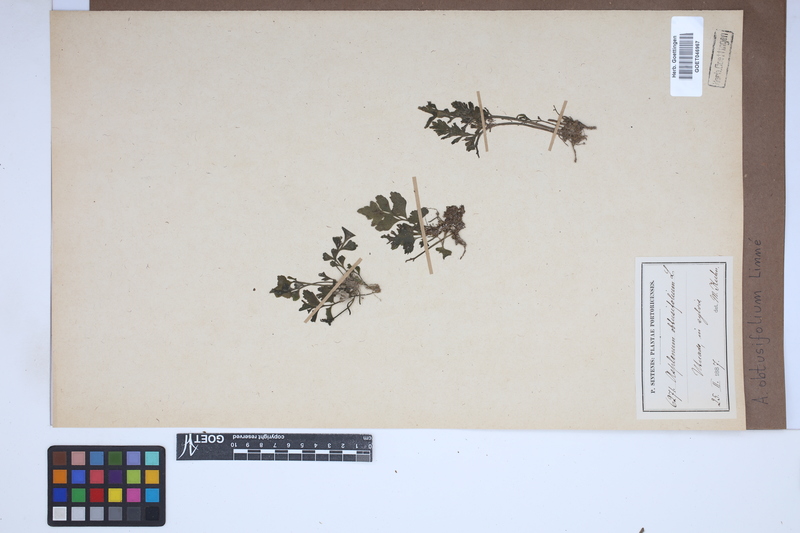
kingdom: Plantae
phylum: Tracheophyta
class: Polypodiopsida
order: Polypodiales
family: Aspleniaceae
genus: Hymenasplenium
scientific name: Hymenasplenium obtusifolium
